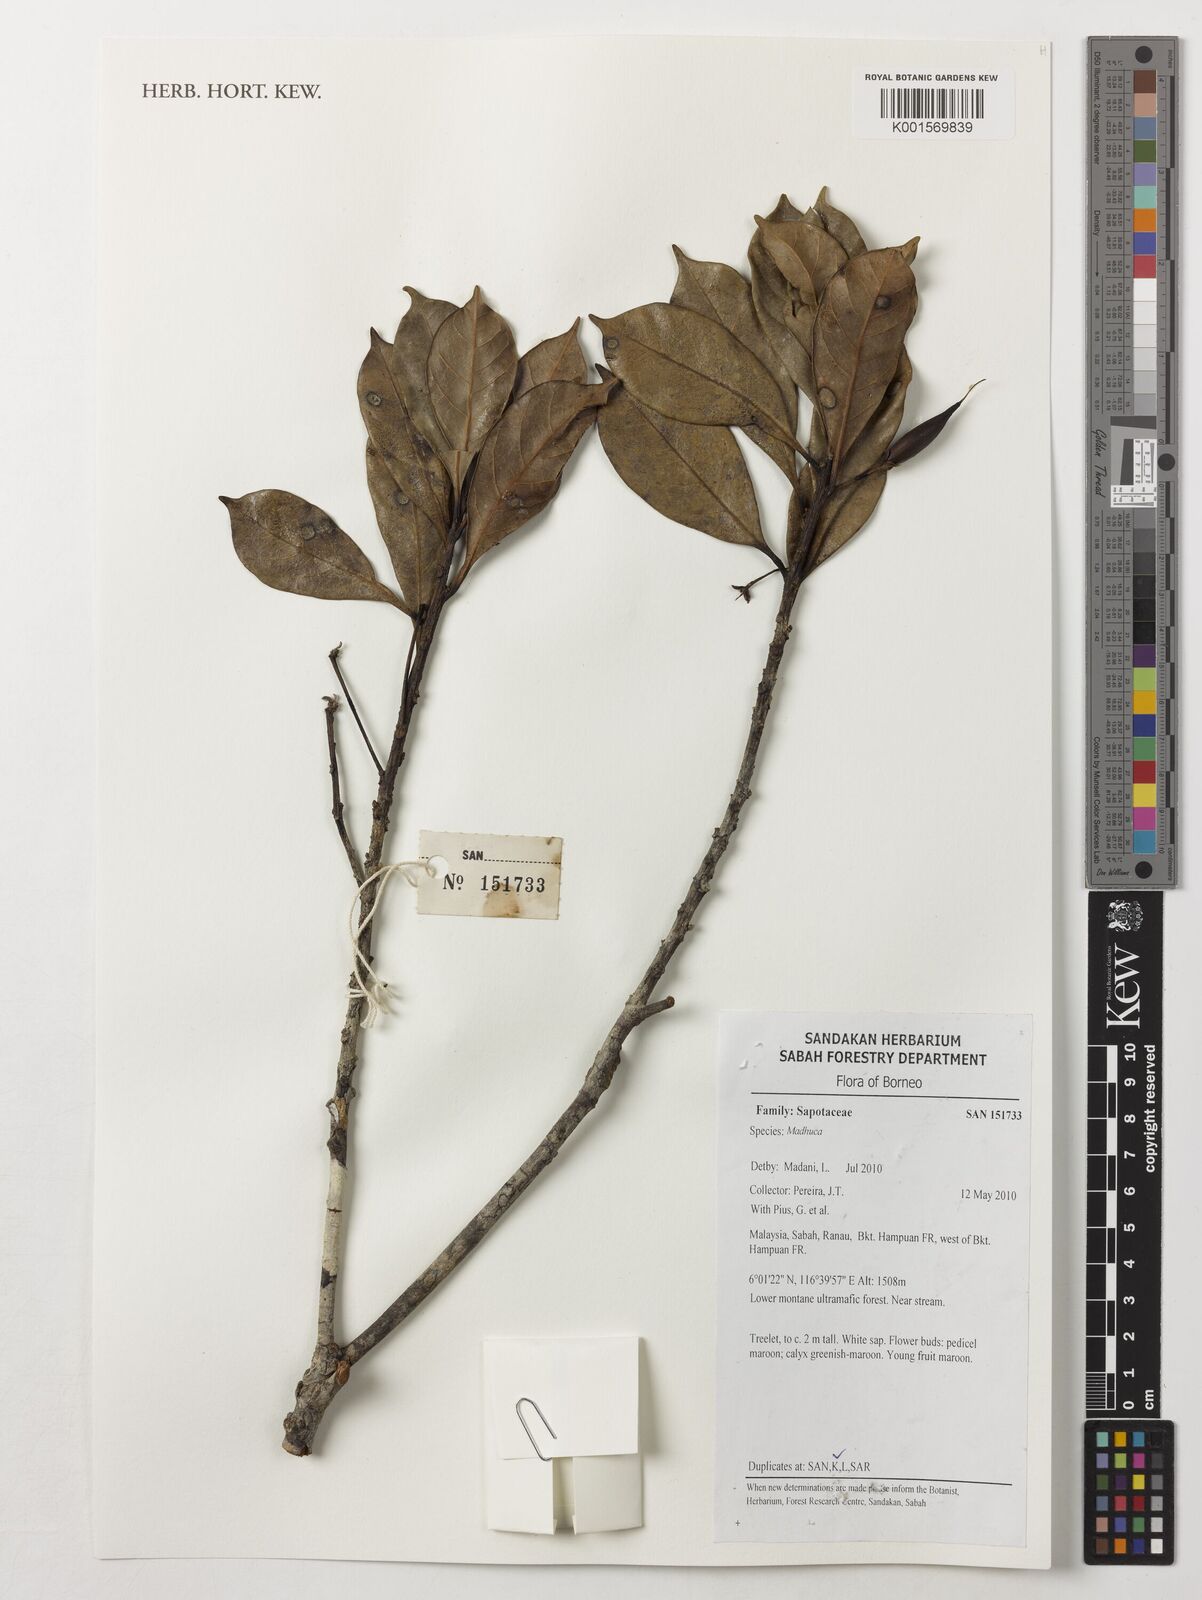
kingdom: Plantae
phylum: Tracheophyta
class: Magnoliopsida
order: Ericales
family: Sapotaceae
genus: Madhuca
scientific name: Madhuca
